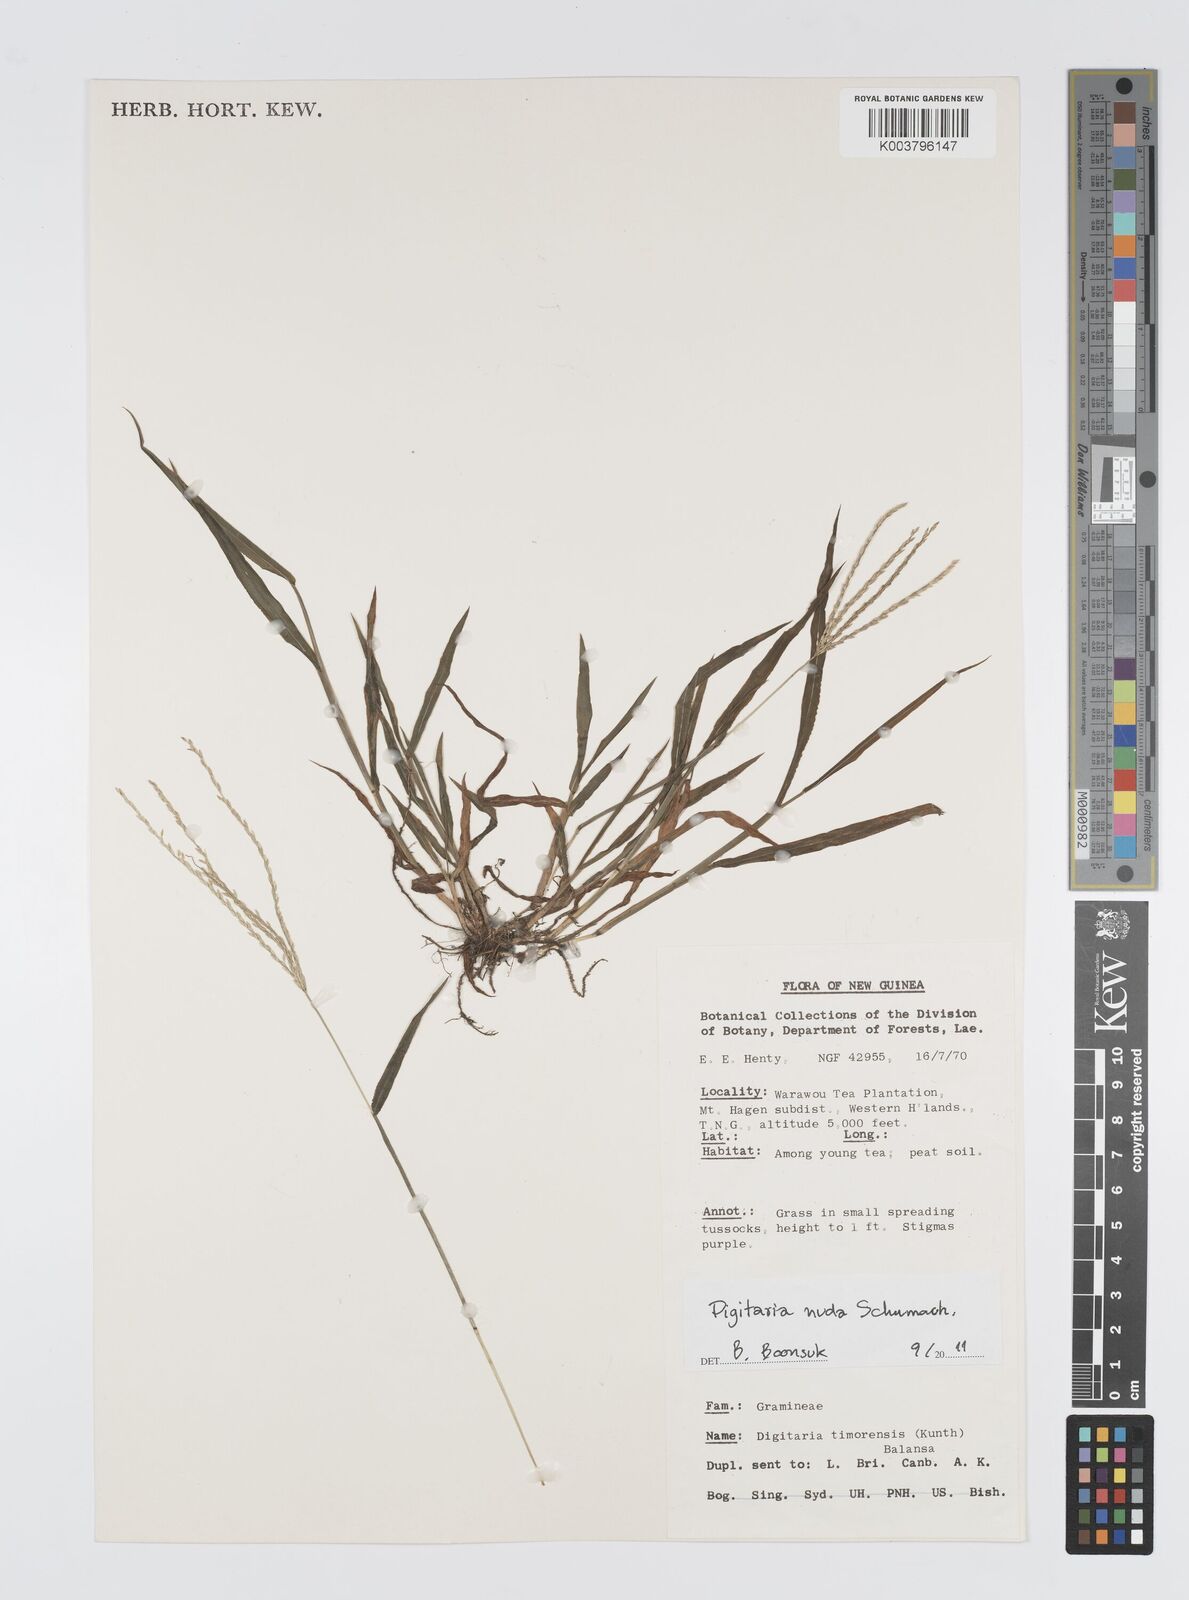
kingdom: Plantae
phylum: Tracheophyta
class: Liliopsida
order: Poales
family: Poaceae
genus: Digitaria
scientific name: Digitaria nuda
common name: Naked crabgrass
